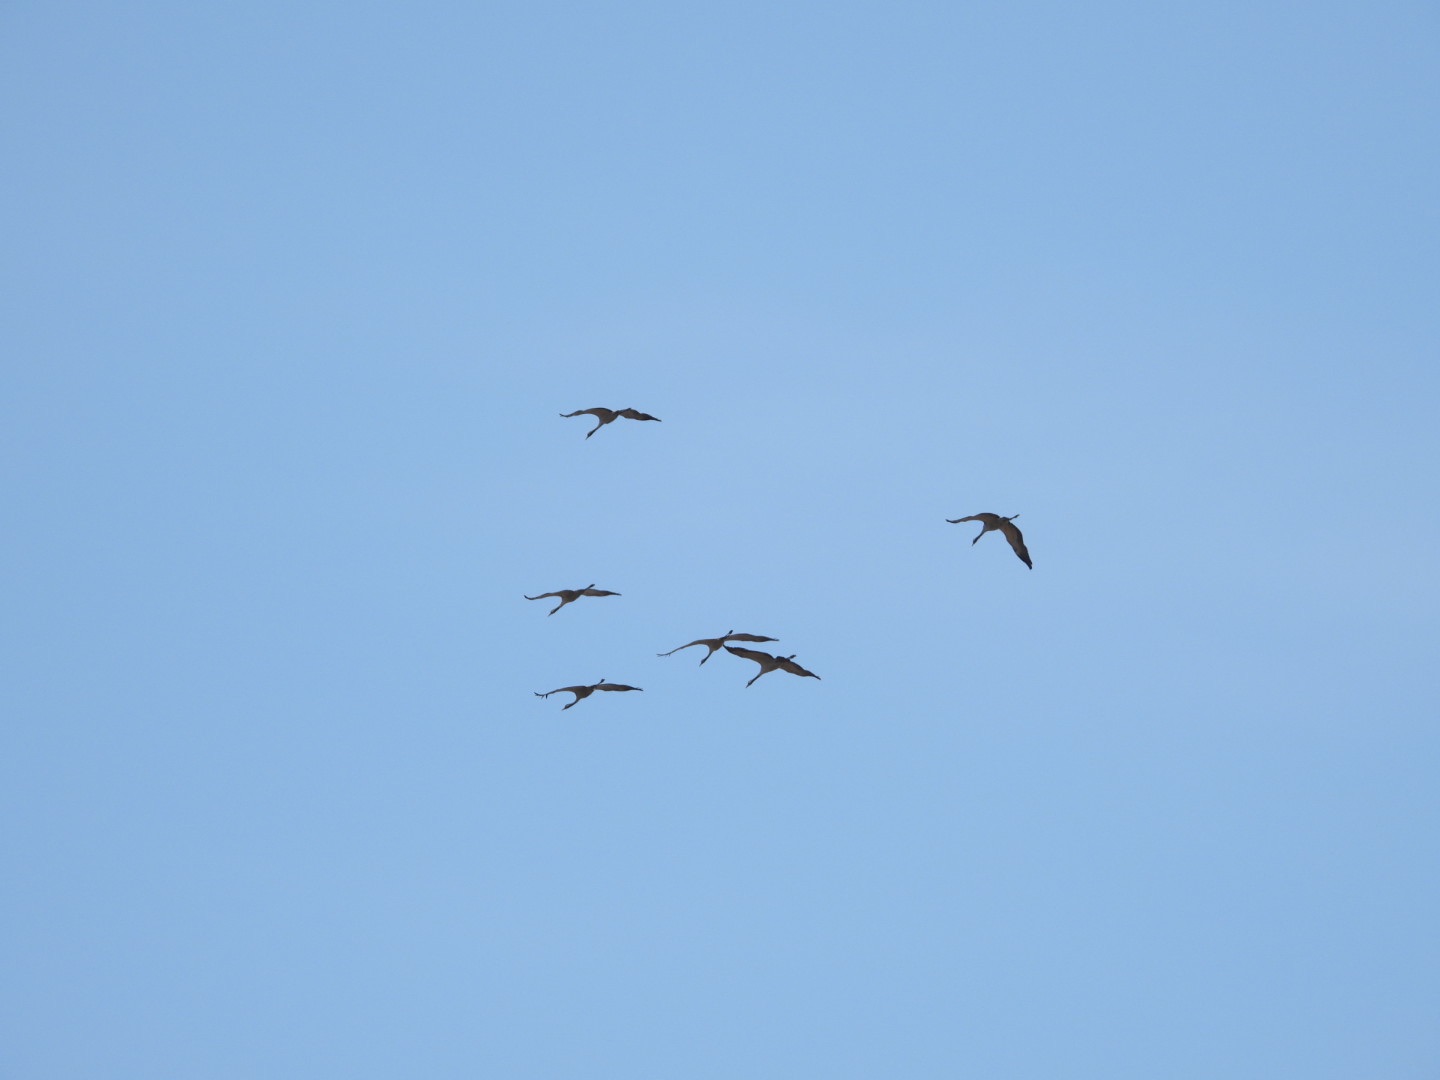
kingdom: Animalia
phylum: Chordata
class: Aves
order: Gruiformes
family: Gruidae
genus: Grus
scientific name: Grus grus
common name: Trane
